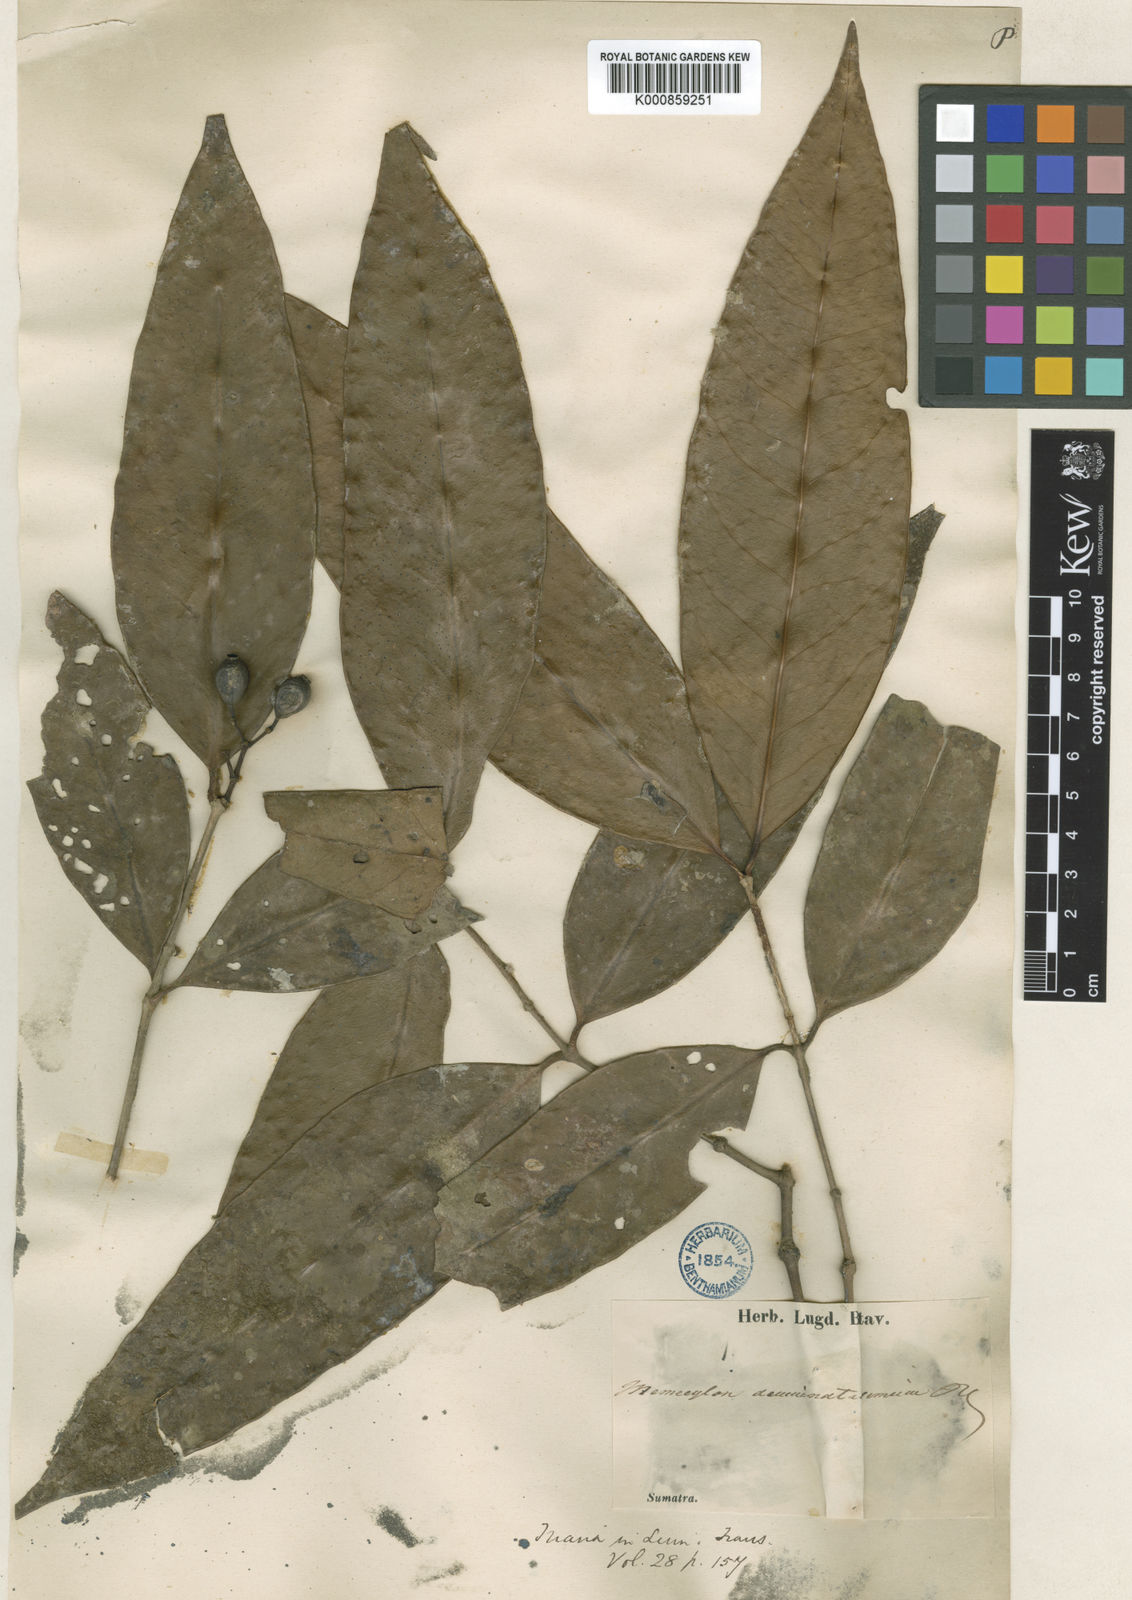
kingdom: Plantae
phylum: Tracheophyta
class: Magnoliopsida
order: Myrtales
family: Melastomataceae
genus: Memecylon
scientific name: Memecylon acuminatissimum
